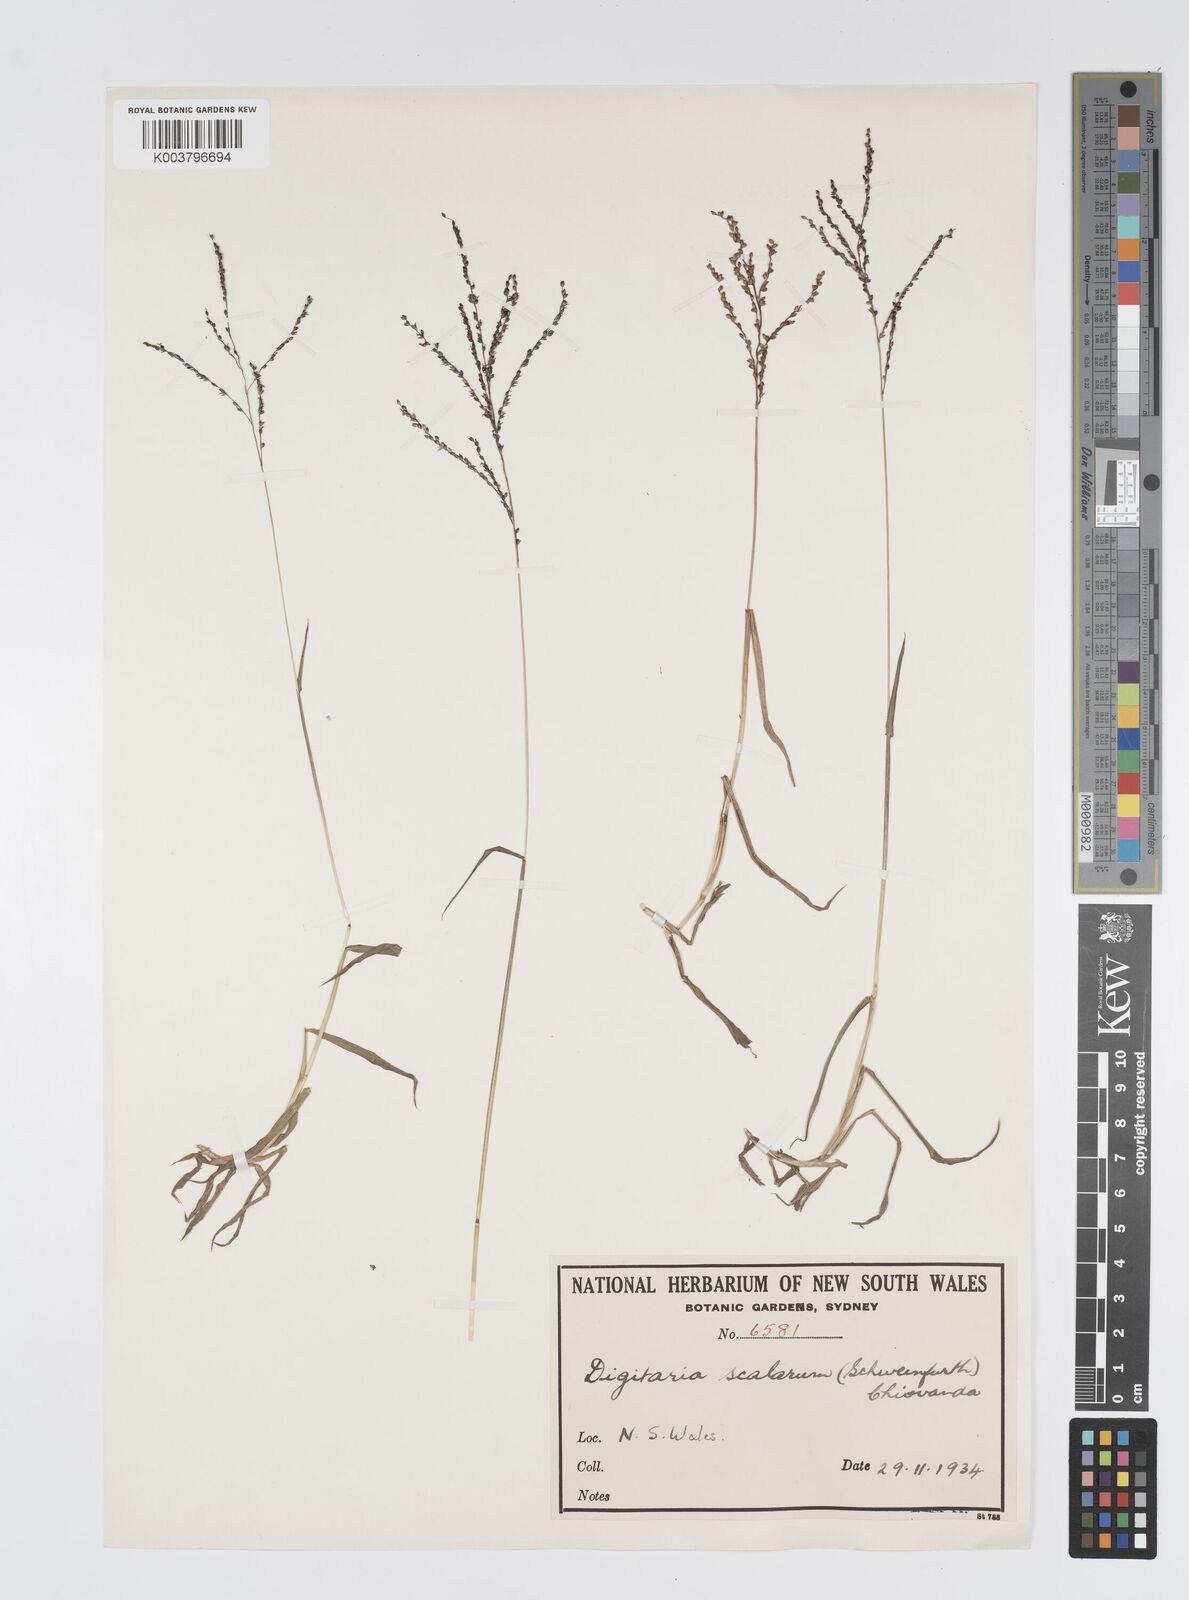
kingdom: Plantae
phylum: Tracheophyta
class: Liliopsida
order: Poales
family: Poaceae
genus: Digitaria
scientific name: Digitaria abyssinica
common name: African couchgrass
